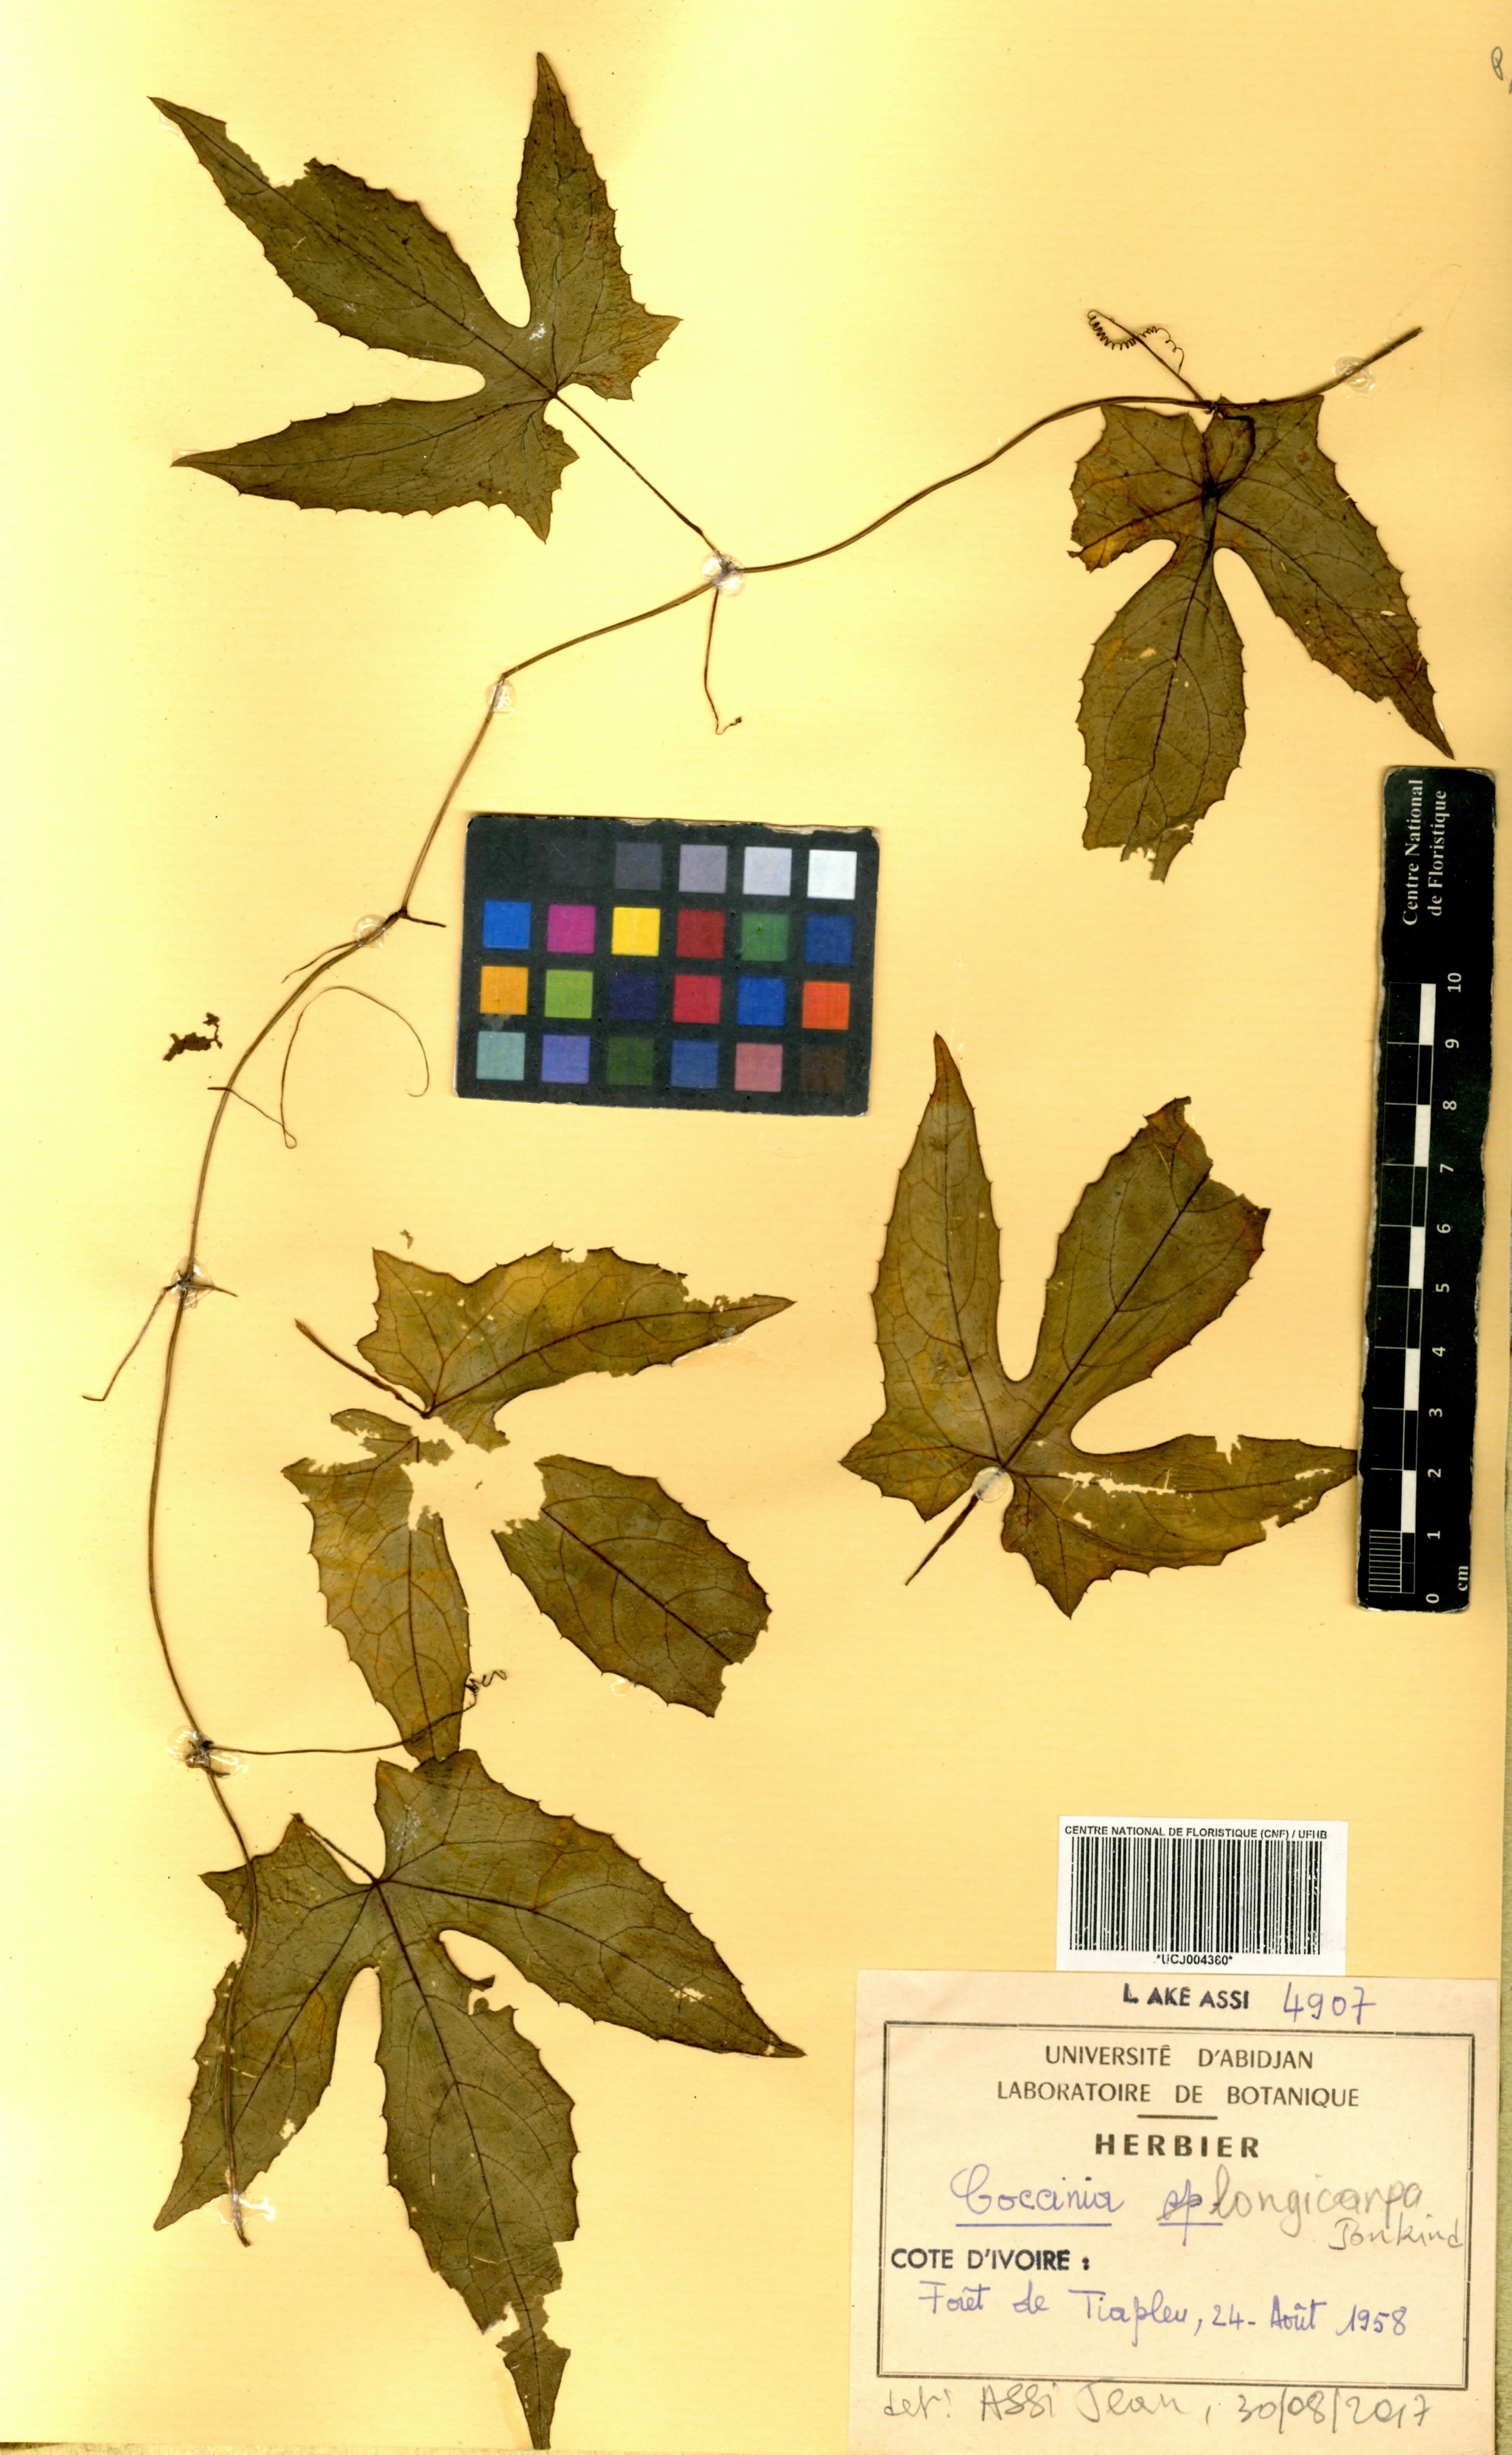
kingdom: Plantae
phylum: Tracheophyta
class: Magnoliopsida
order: Cucurbitales
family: Cucurbitaceae
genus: Coccinia
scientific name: Coccinia longicarpa
